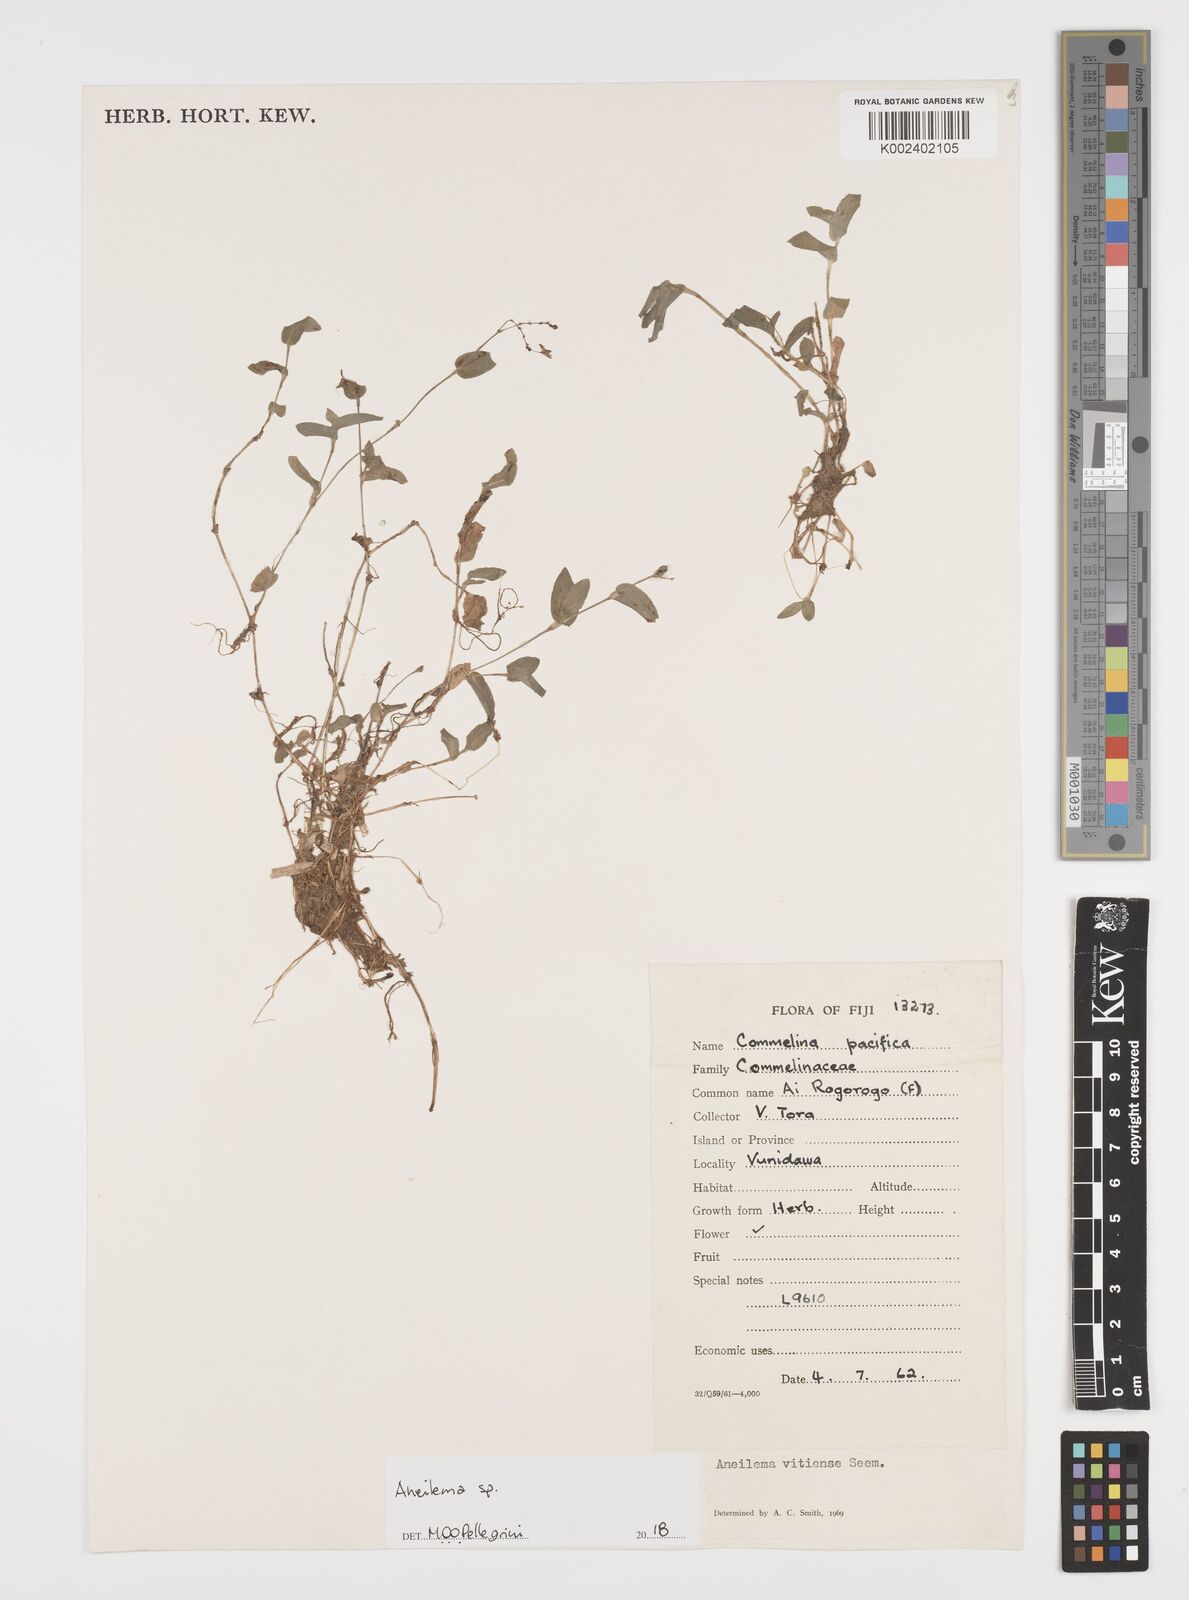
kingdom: Plantae
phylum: Tracheophyta
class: Liliopsida
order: Commelinales
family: Commelinaceae
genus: Aneilema
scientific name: Aneilema
